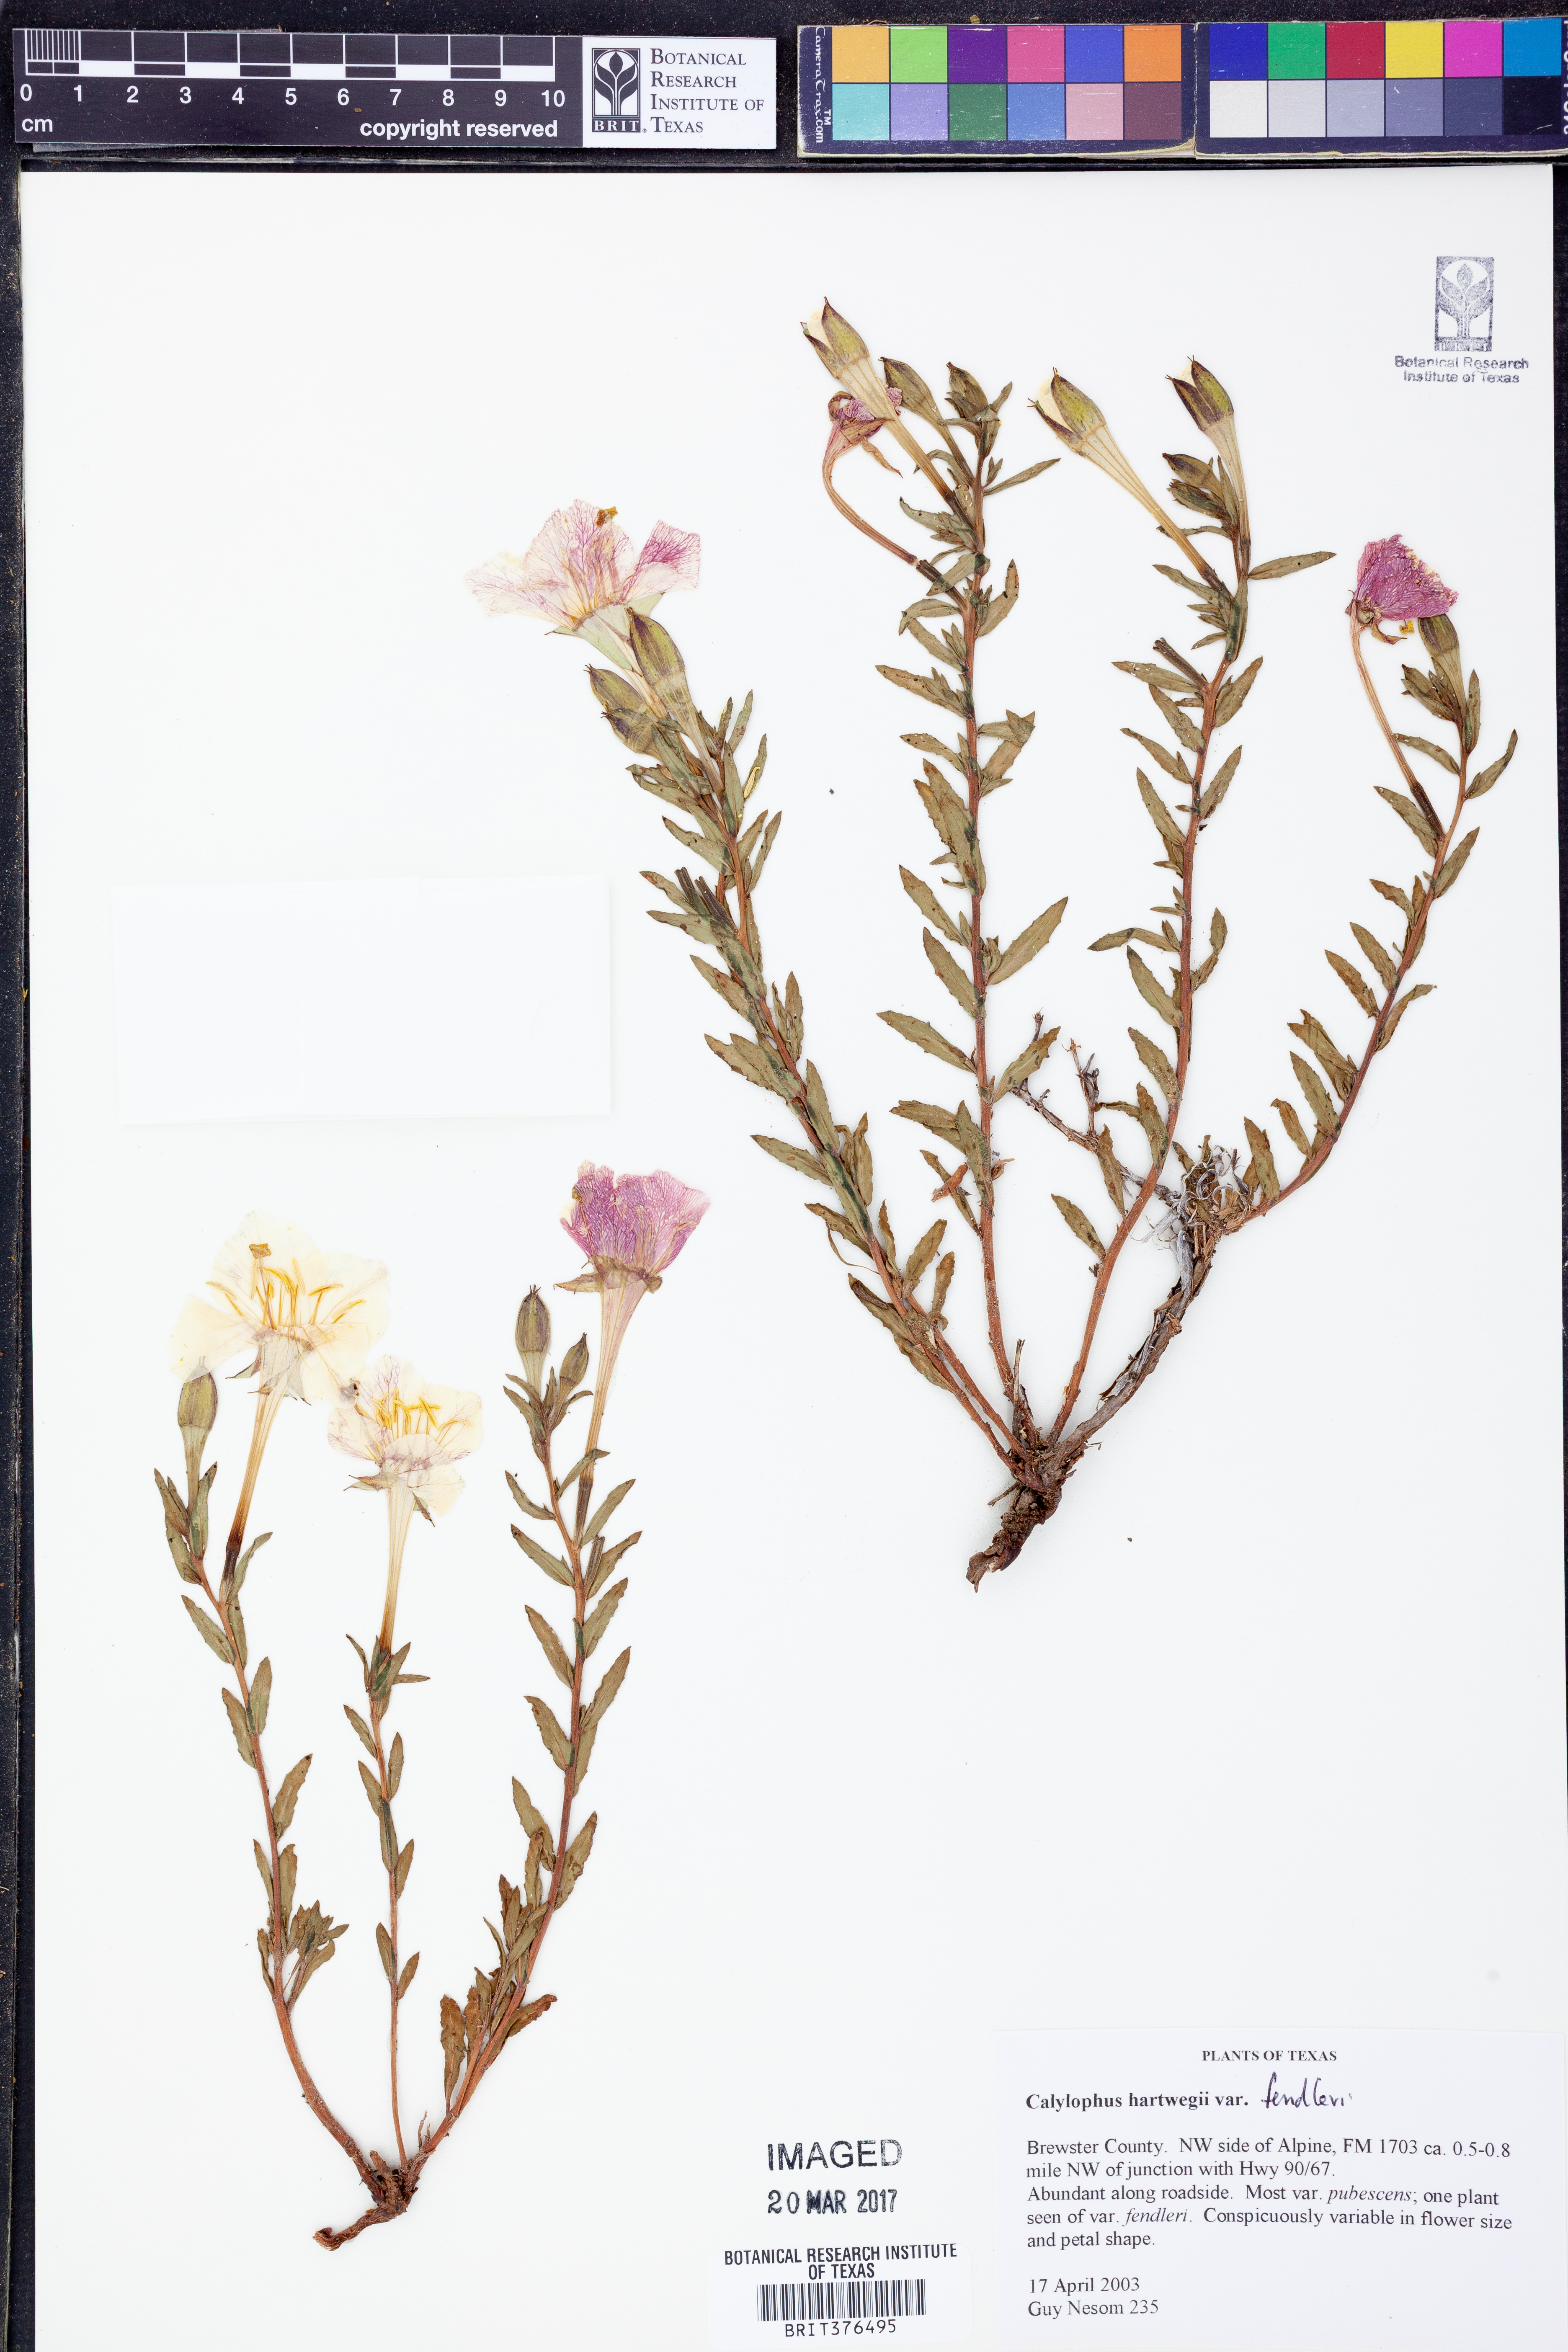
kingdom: Plantae
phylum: Tracheophyta
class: Magnoliopsida
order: Myrtales
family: Onagraceae
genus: Oenothera
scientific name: Oenothera hartwegii
